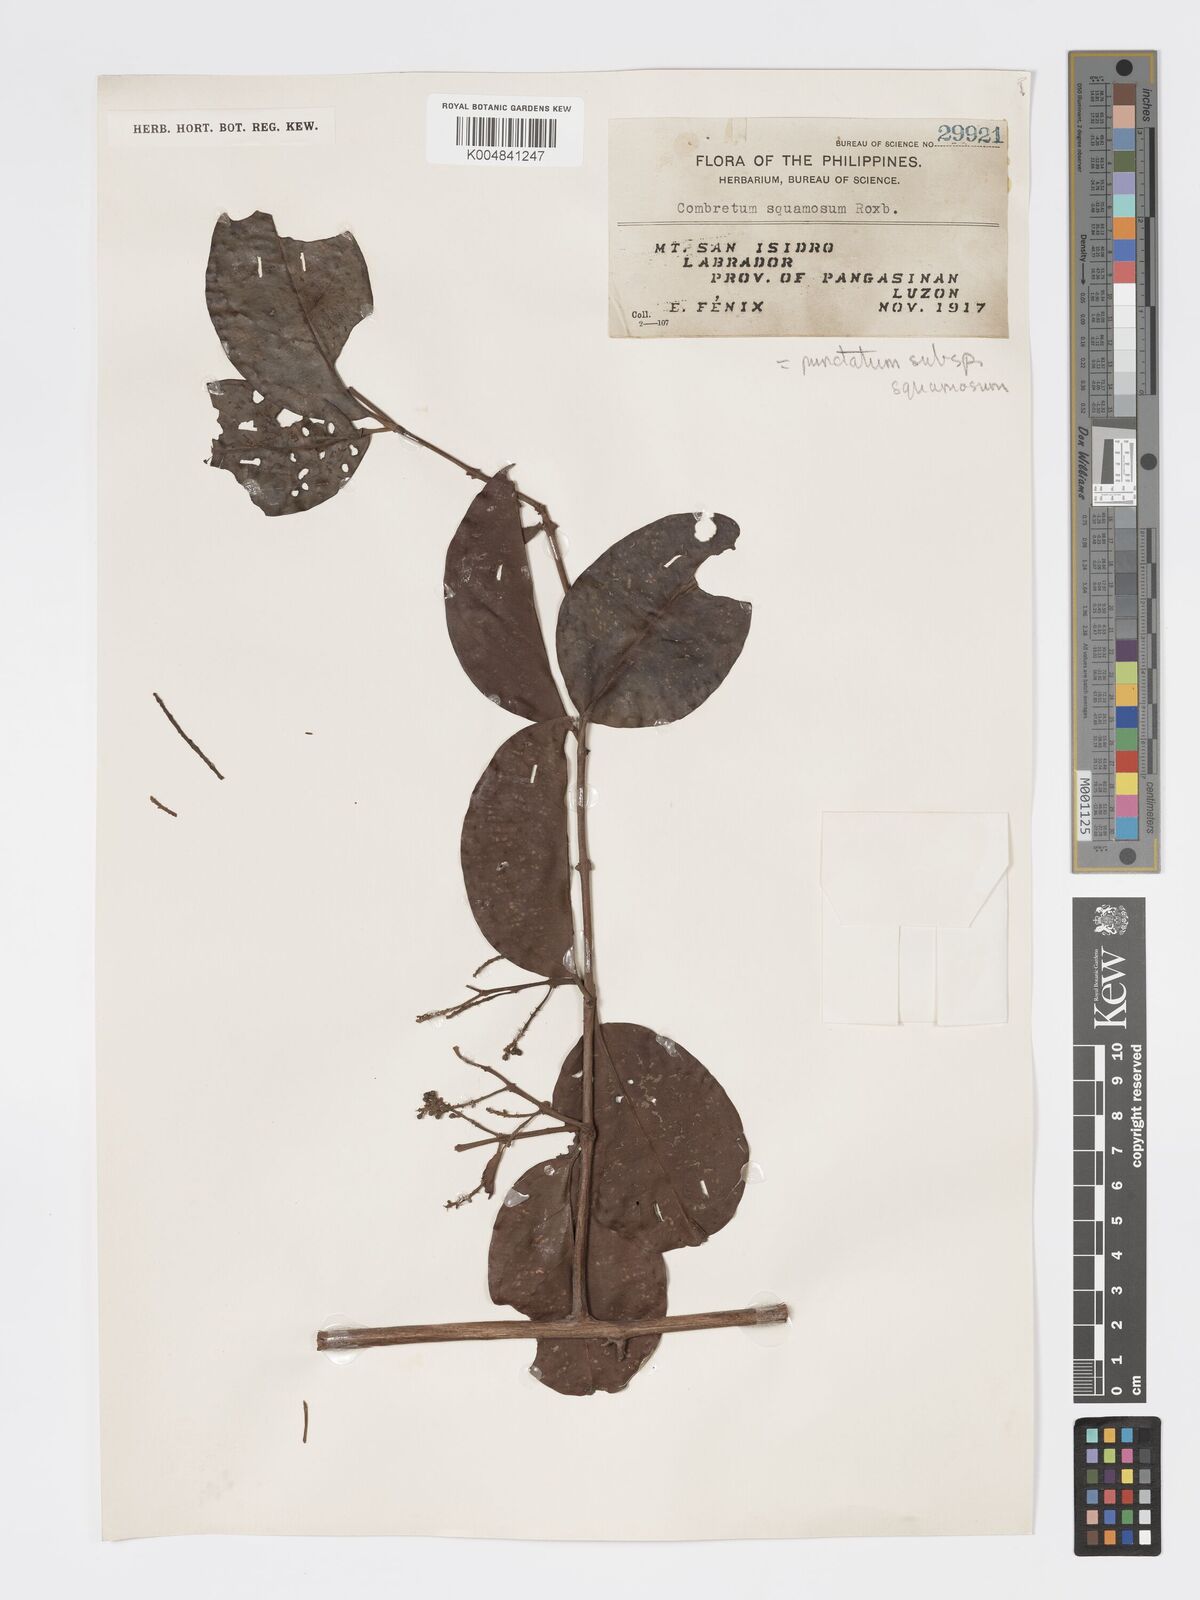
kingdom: Plantae
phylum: Tracheophyta
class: Magnoliopsida
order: Myrtales
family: Combretaceae
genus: Combretum
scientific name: Combretum
